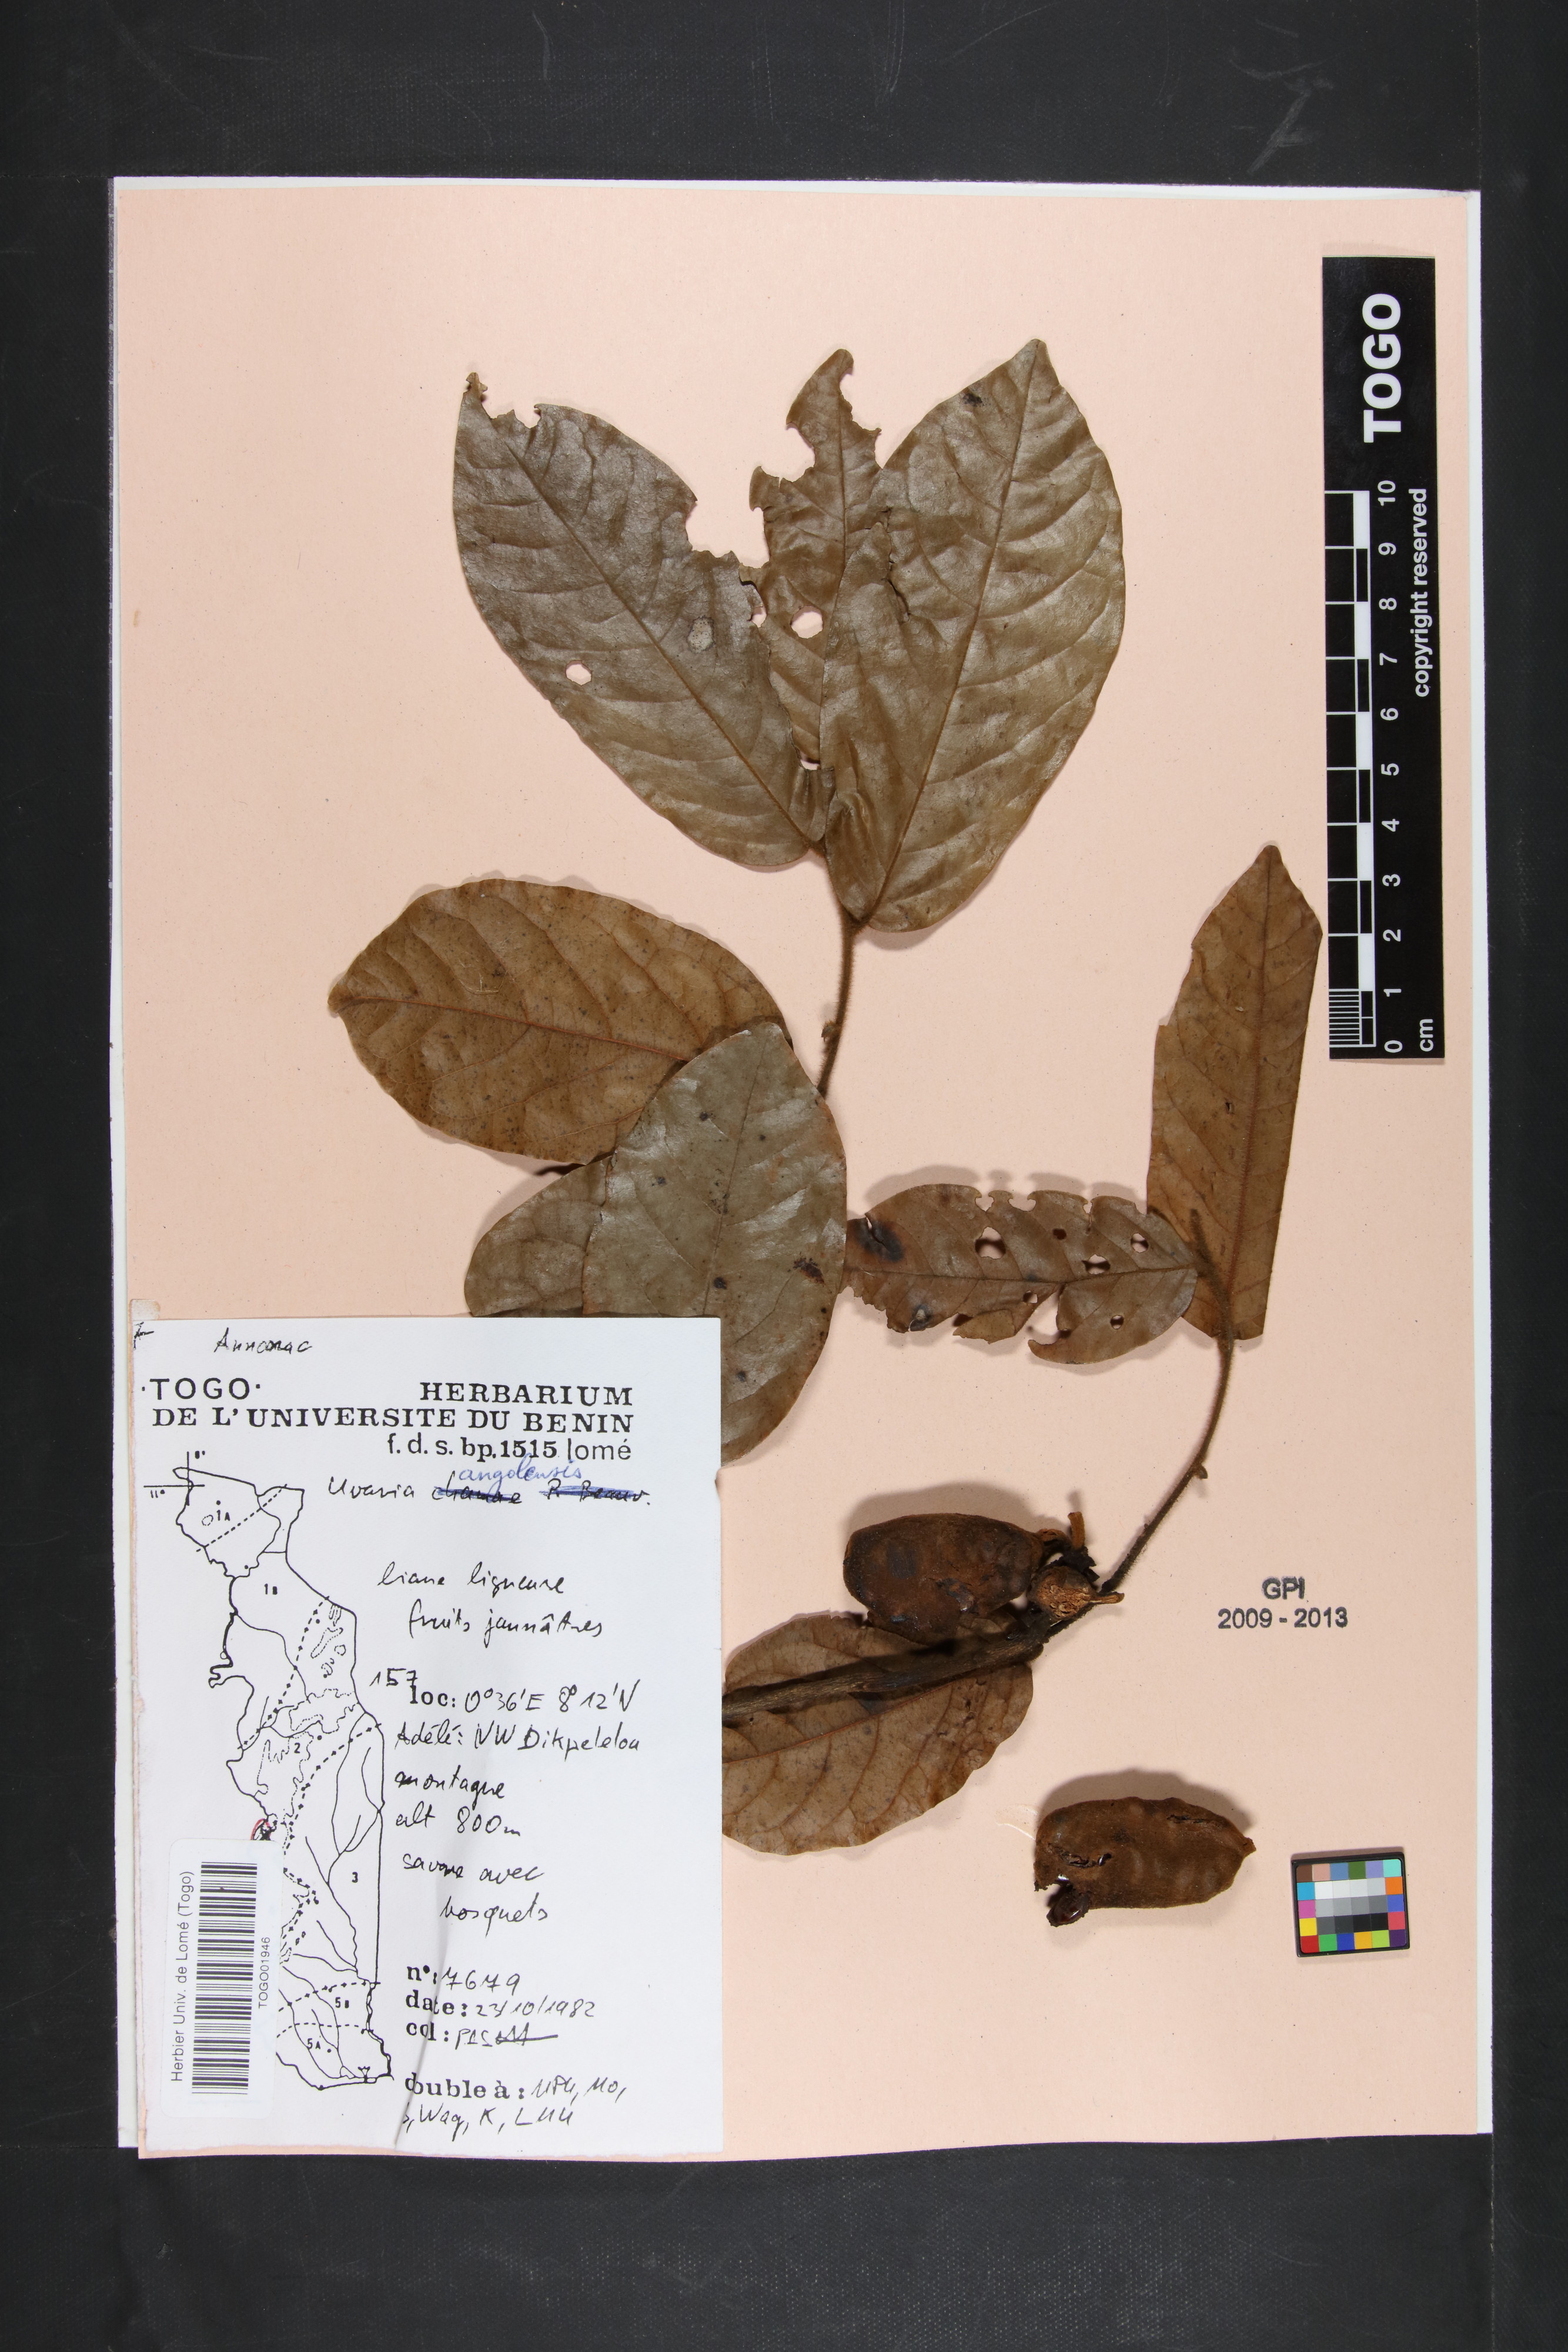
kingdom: Plantae
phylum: Tracheophyta
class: Magnoliopsida
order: Magnoliales
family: Annonaceae
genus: Uvaria
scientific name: Uvaria angolensis
